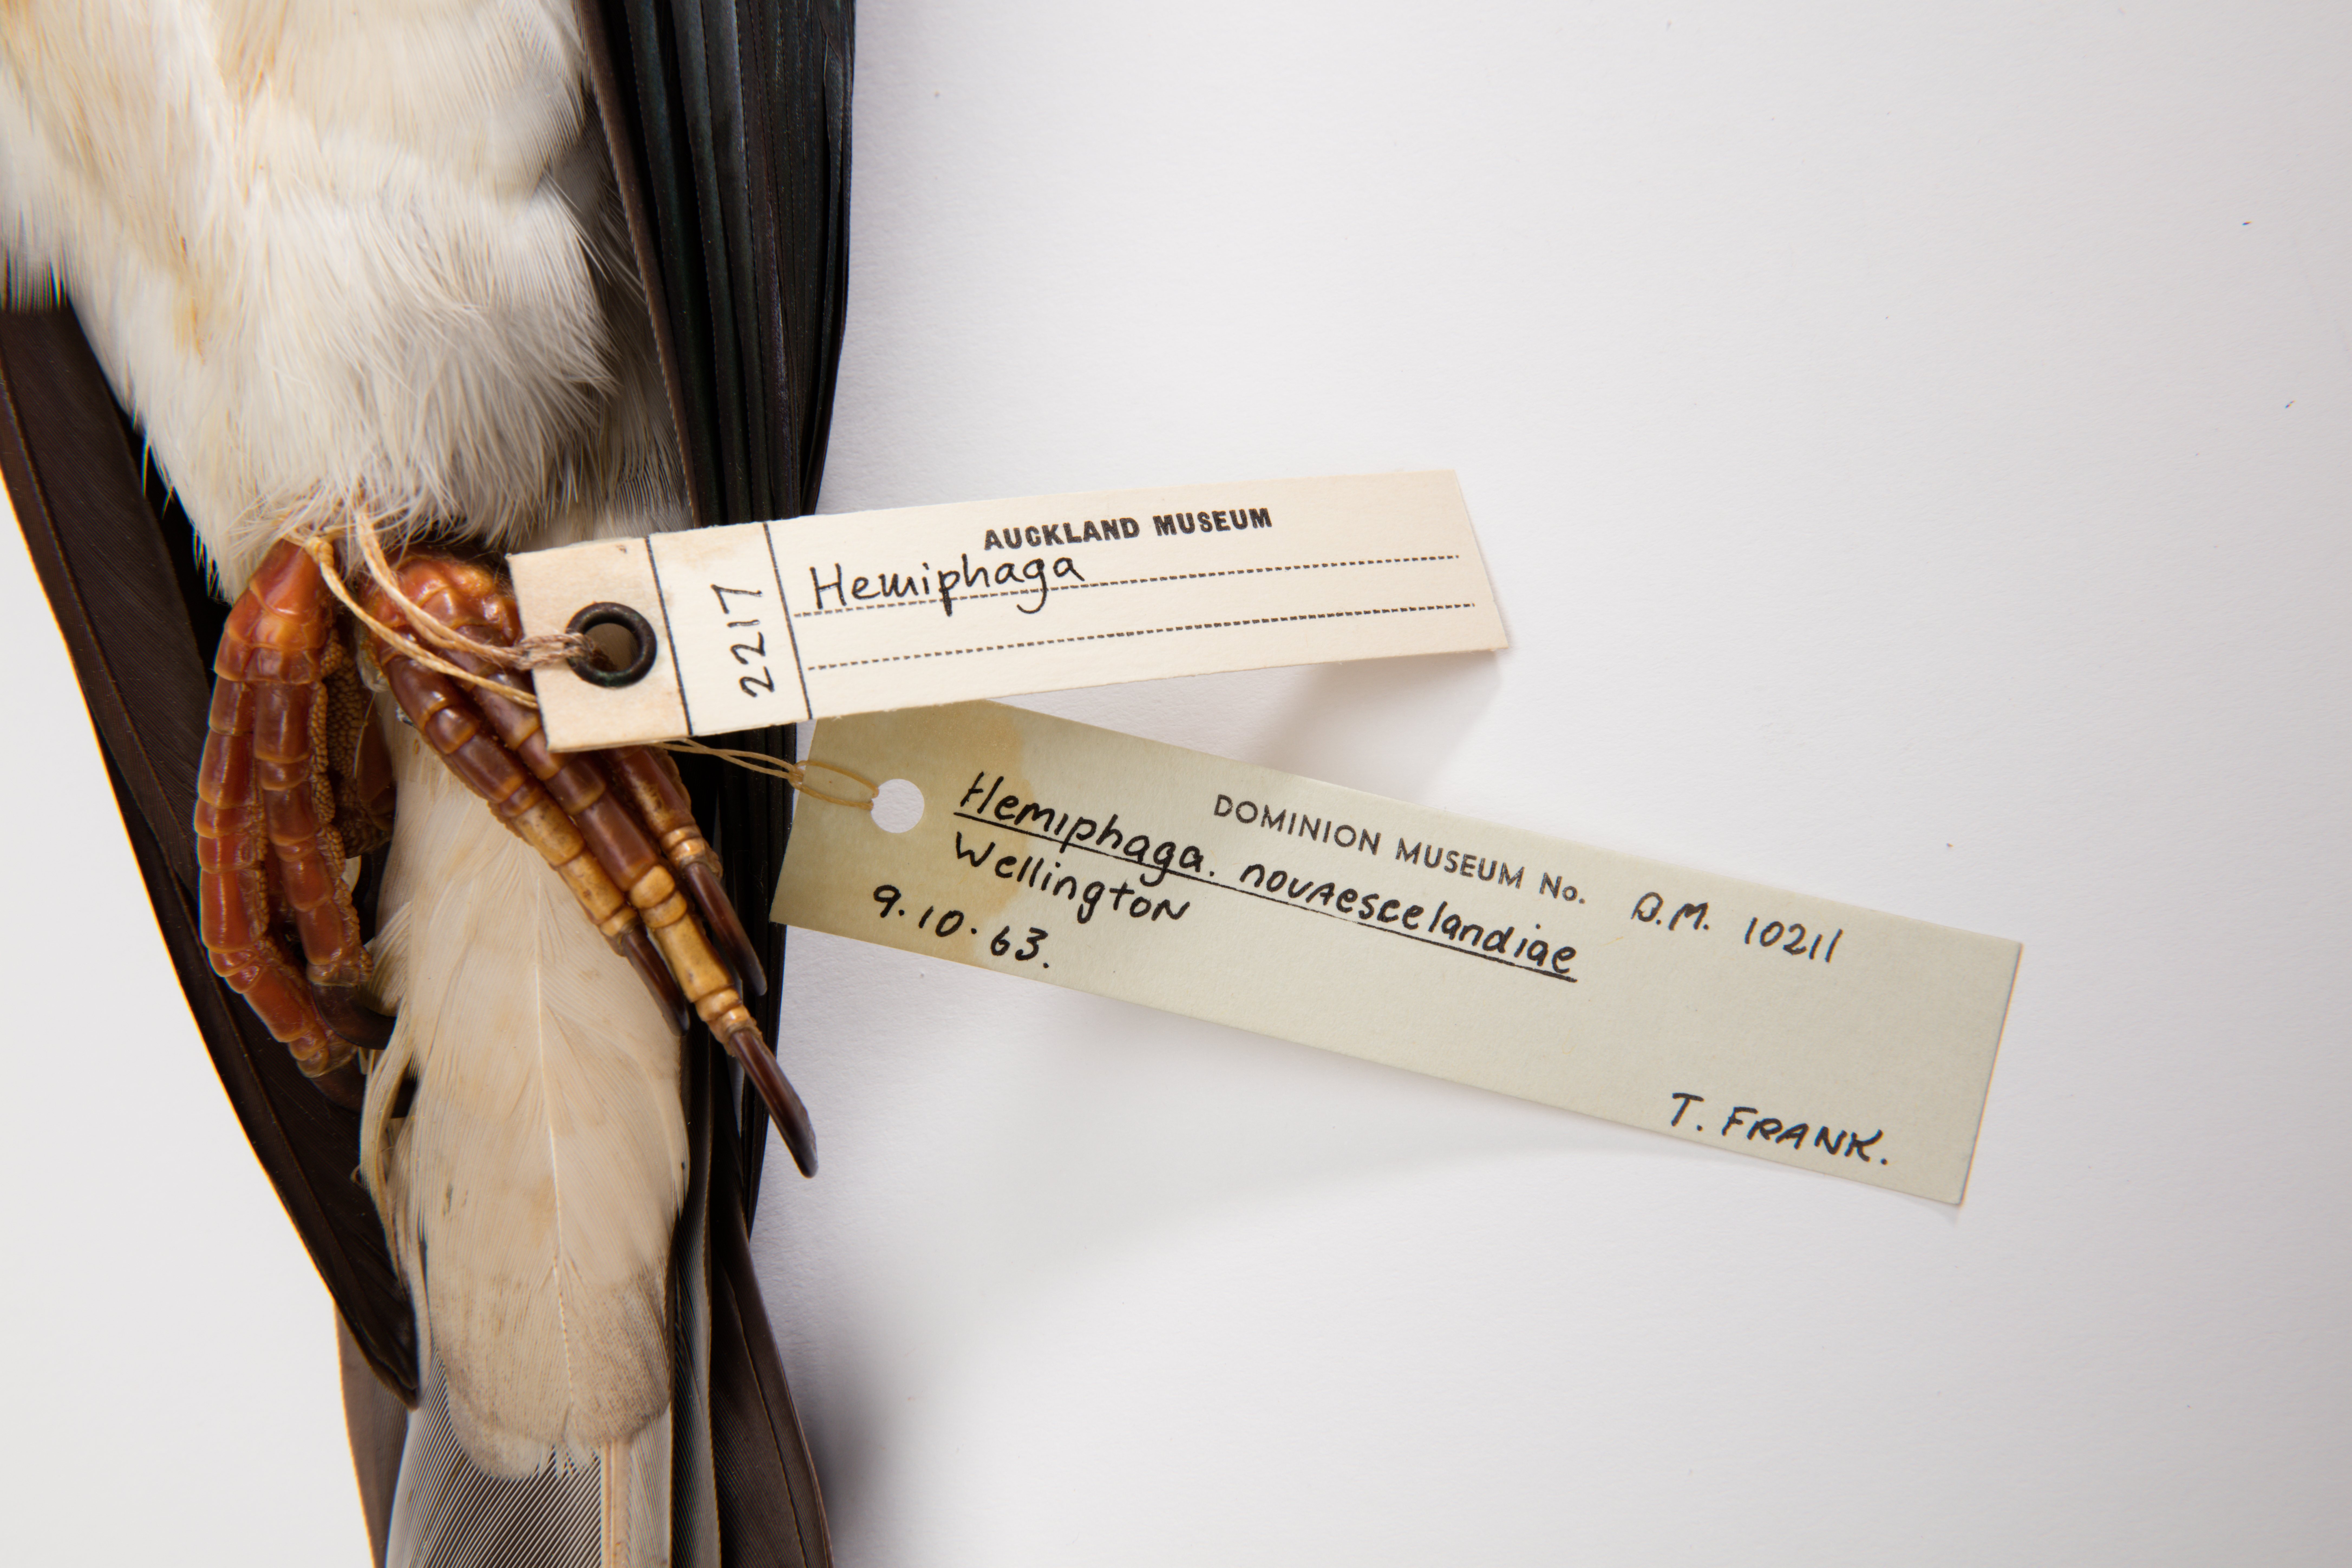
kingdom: Animalia
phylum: Chordata
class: Aves
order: Columbiformes
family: Columbidae
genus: Hemiphaga
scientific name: Hemiphaga novaeseelandiae
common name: New zealand pigeon
